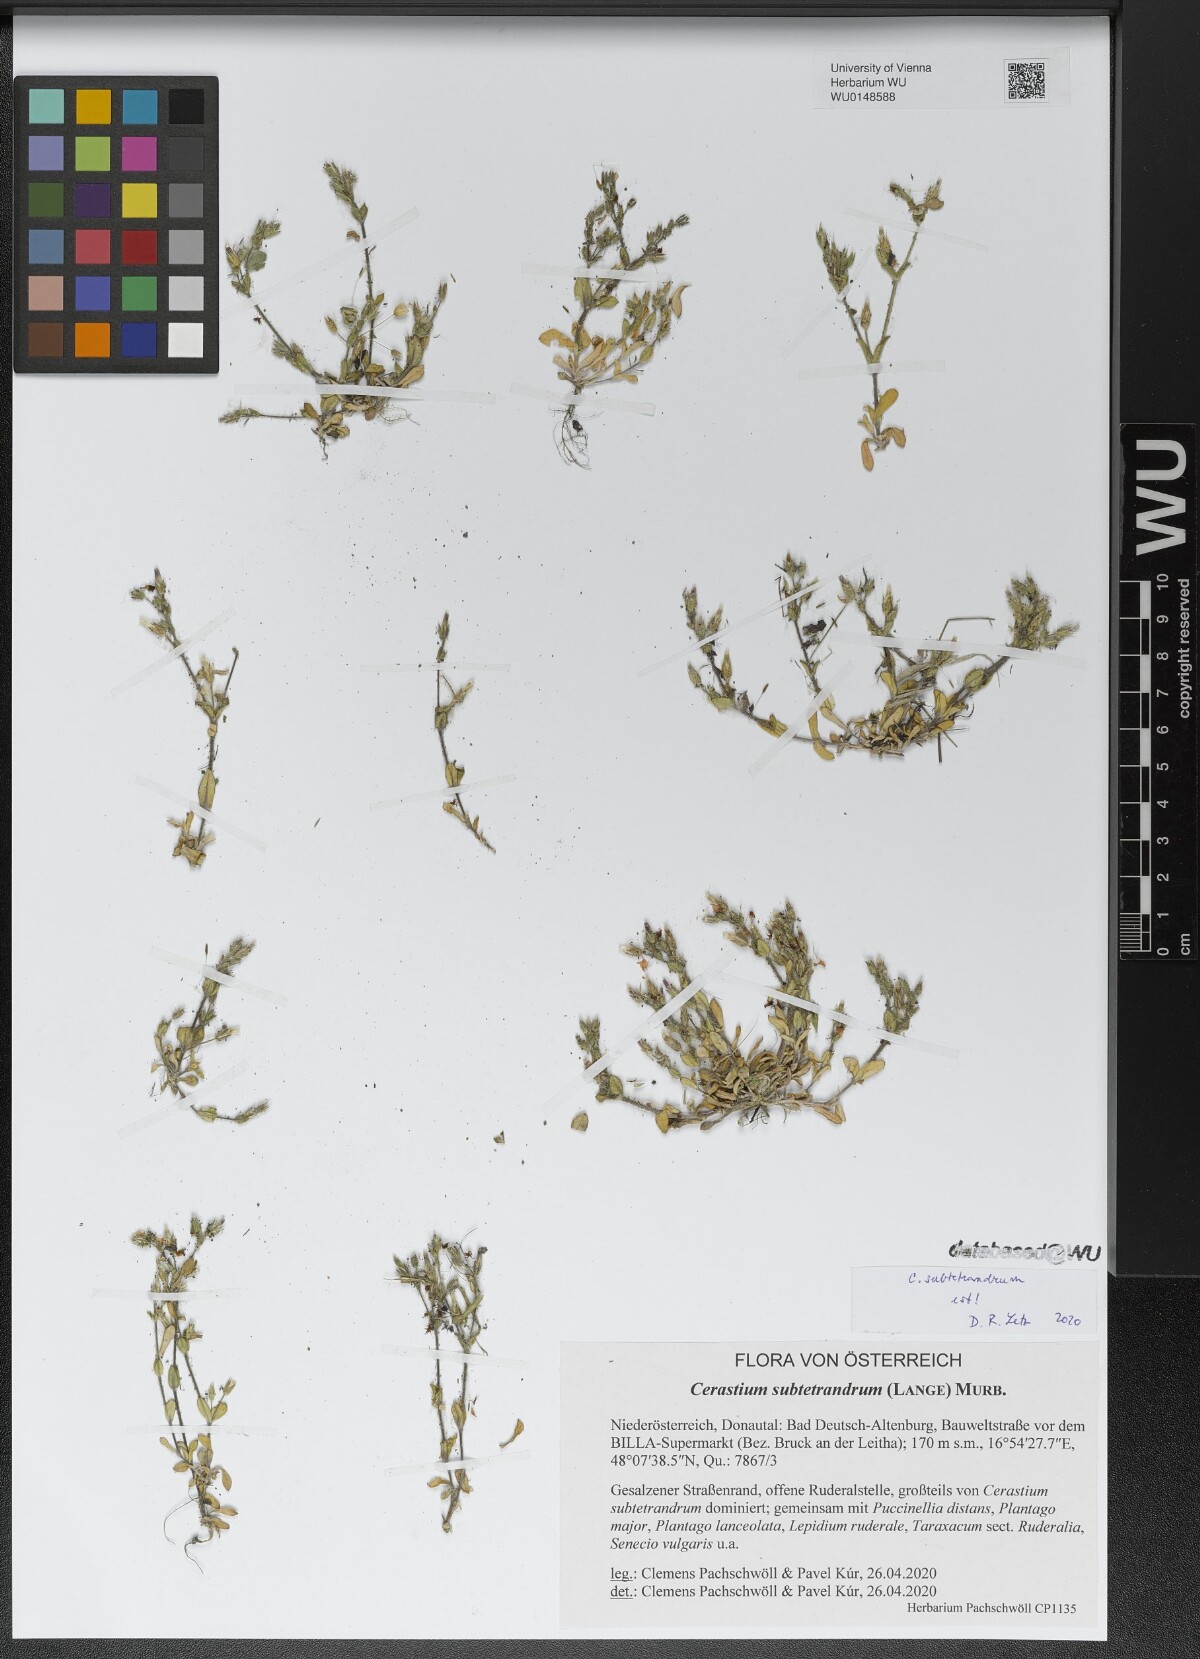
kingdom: Plantae
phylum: Tracheophyta
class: Magnoliopsida
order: Caryophyllales
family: Caryophyllaceae
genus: Cerastium
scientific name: Cerastium subtetrandrum
